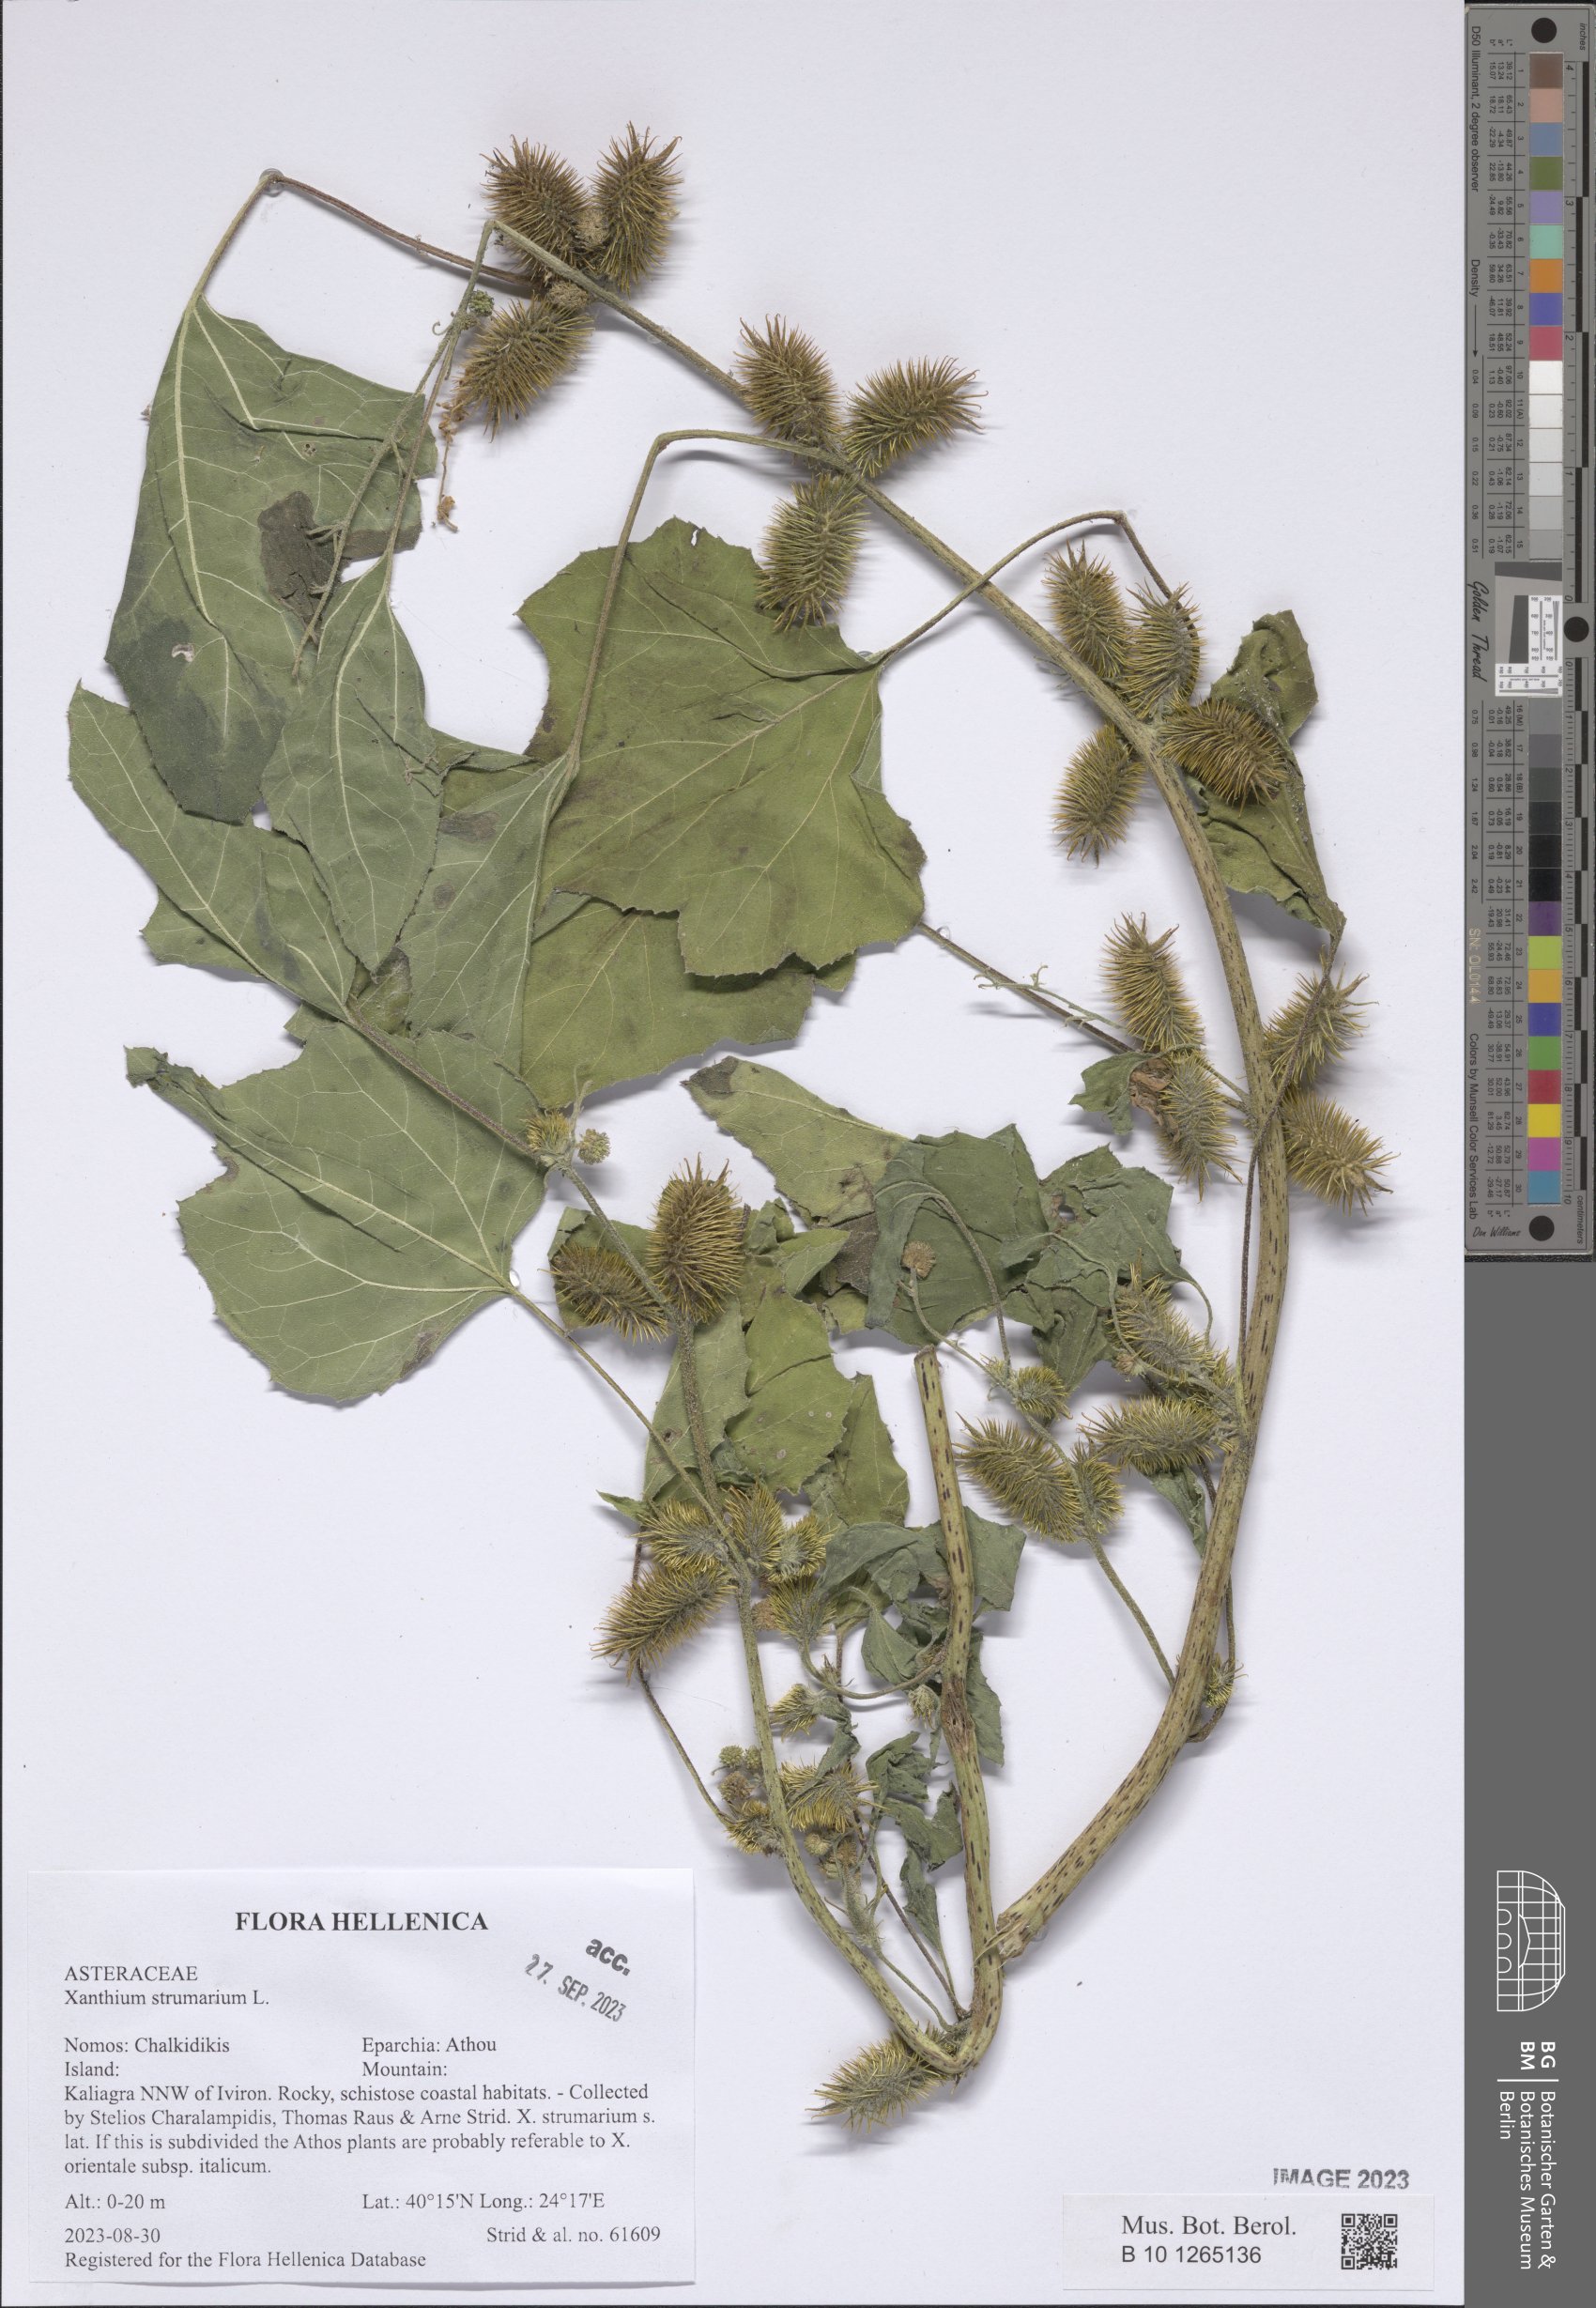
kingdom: Plantae
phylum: Tracheophyta
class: Magnoliopsida
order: Asterales
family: Asteraceae
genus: Xanthium
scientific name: Xanthium strumarium
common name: Rough cocklebur
